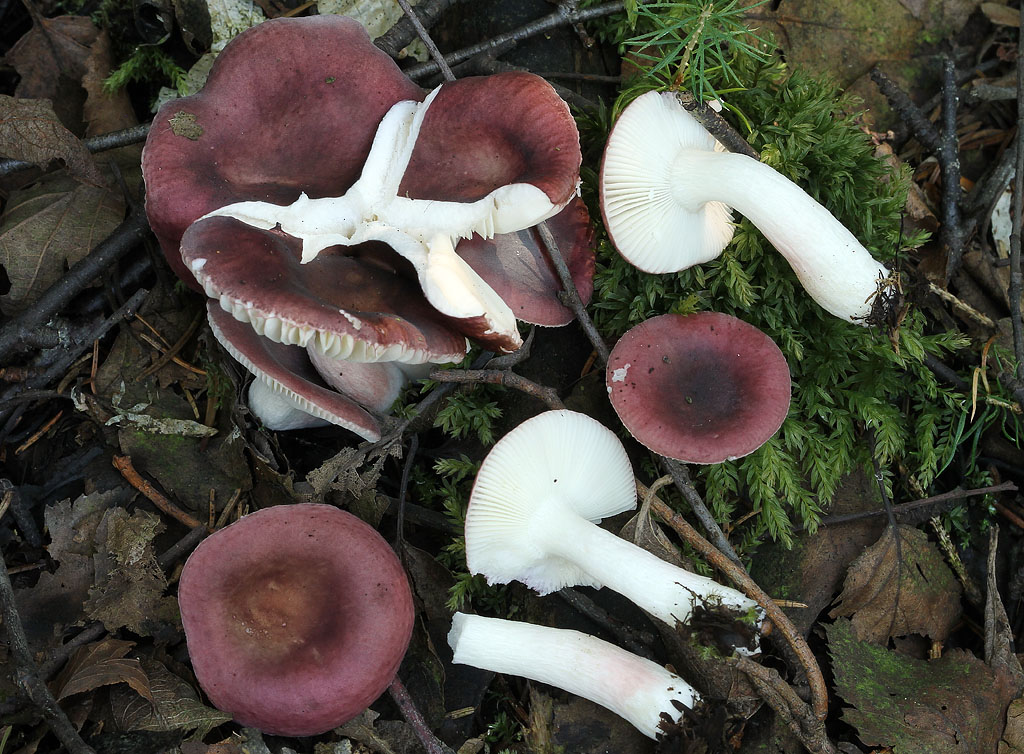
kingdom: Fungi
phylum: Basidiomycota
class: Agaricomycetes
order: Russulales
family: Russulaceae
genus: Russula
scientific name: Russula nitida
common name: året skørhat
